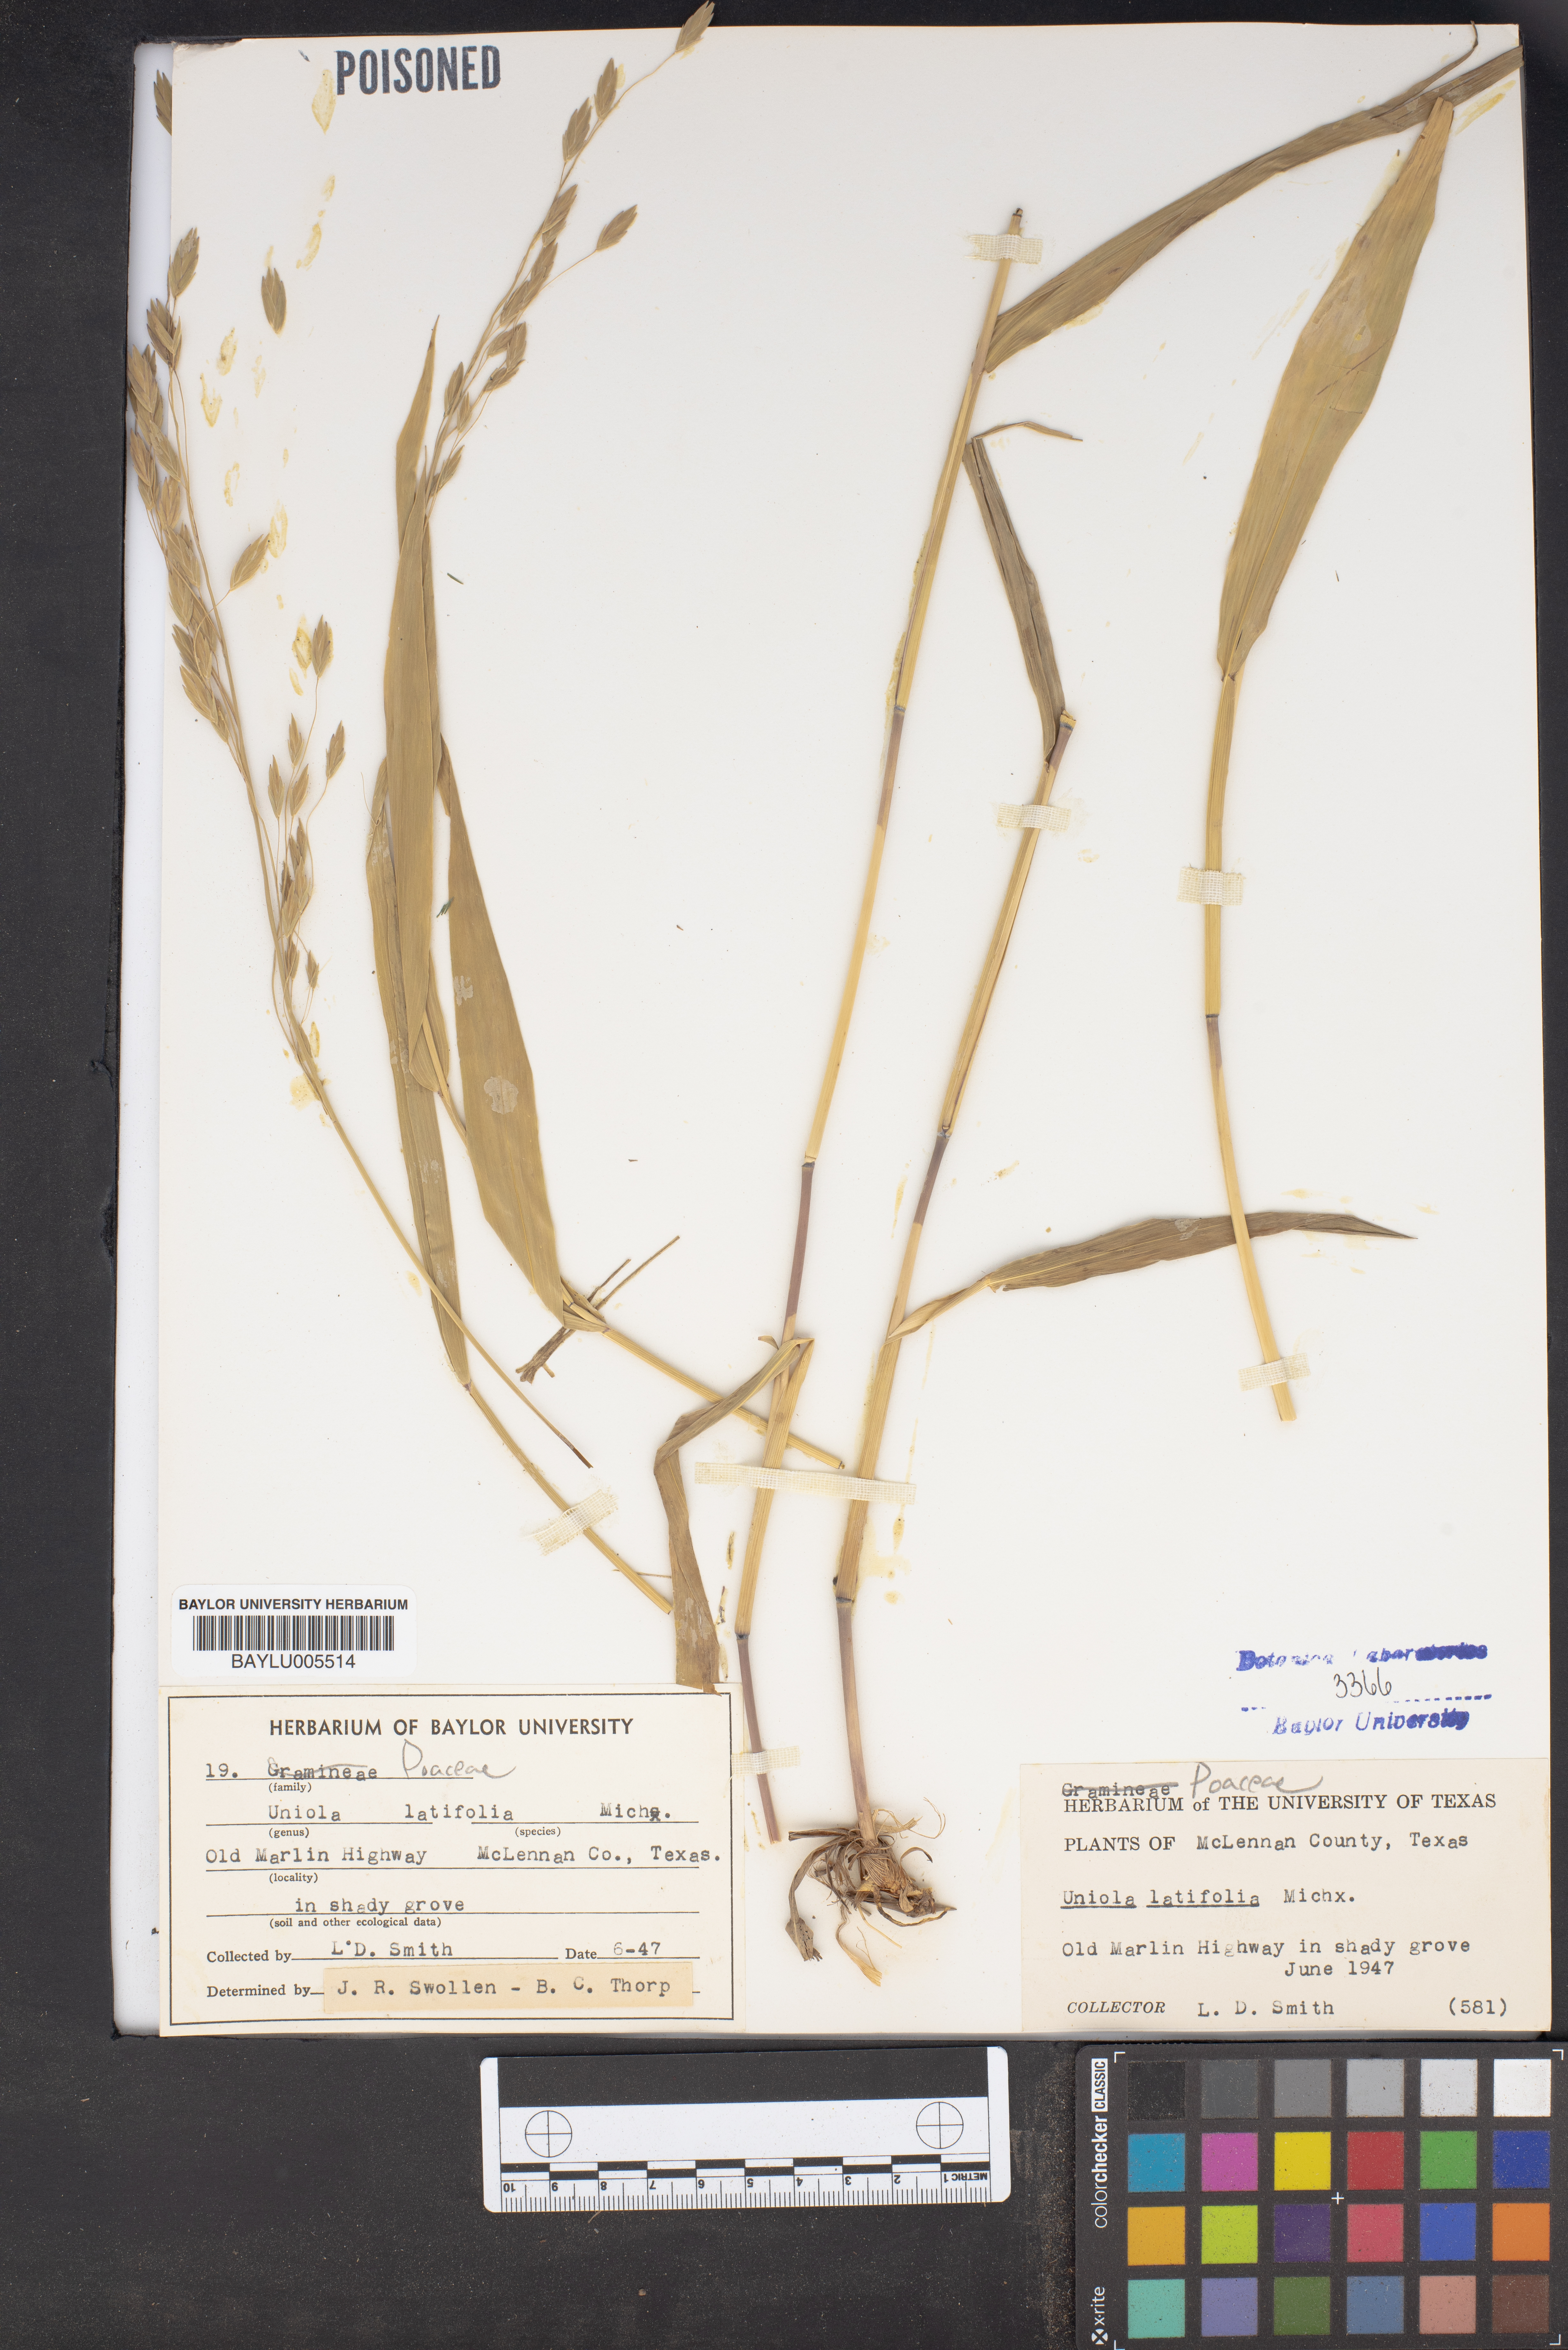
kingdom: Plantae
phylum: Tracheophyta
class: Liliopsida
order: Poales
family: Poaceae
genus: Chasmanthium
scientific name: Chasmanthium latifolium
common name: Broad-leaved chasmanthium
